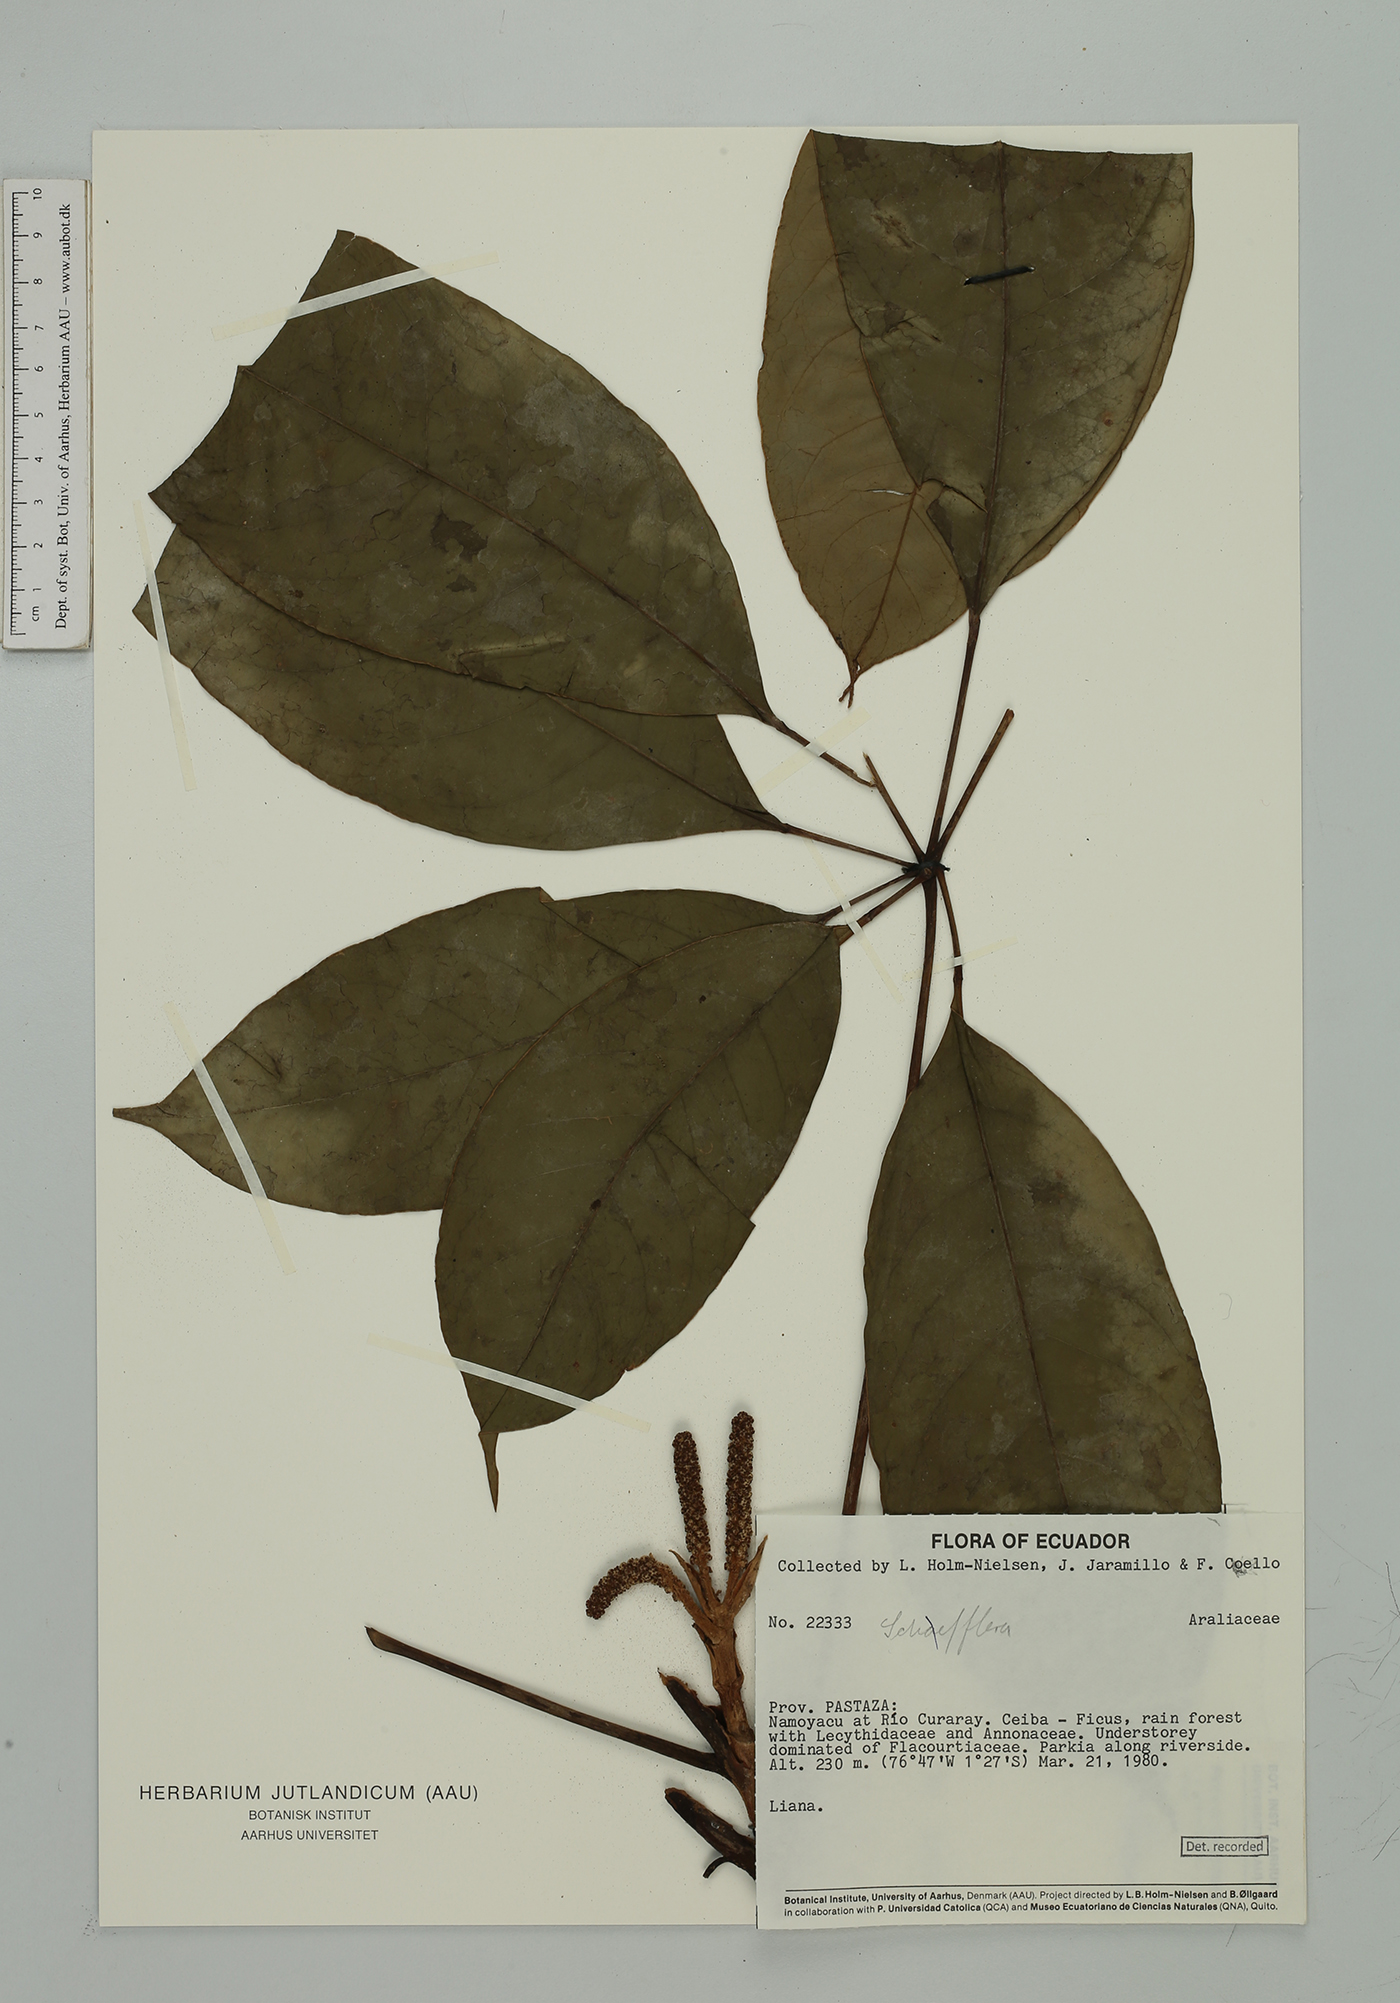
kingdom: Plantae
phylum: Tracheophyta
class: Magnoliopsida
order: Apiales
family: Araliaceae
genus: Sciodaphyllum
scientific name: Sciodaphyllum sprucei
